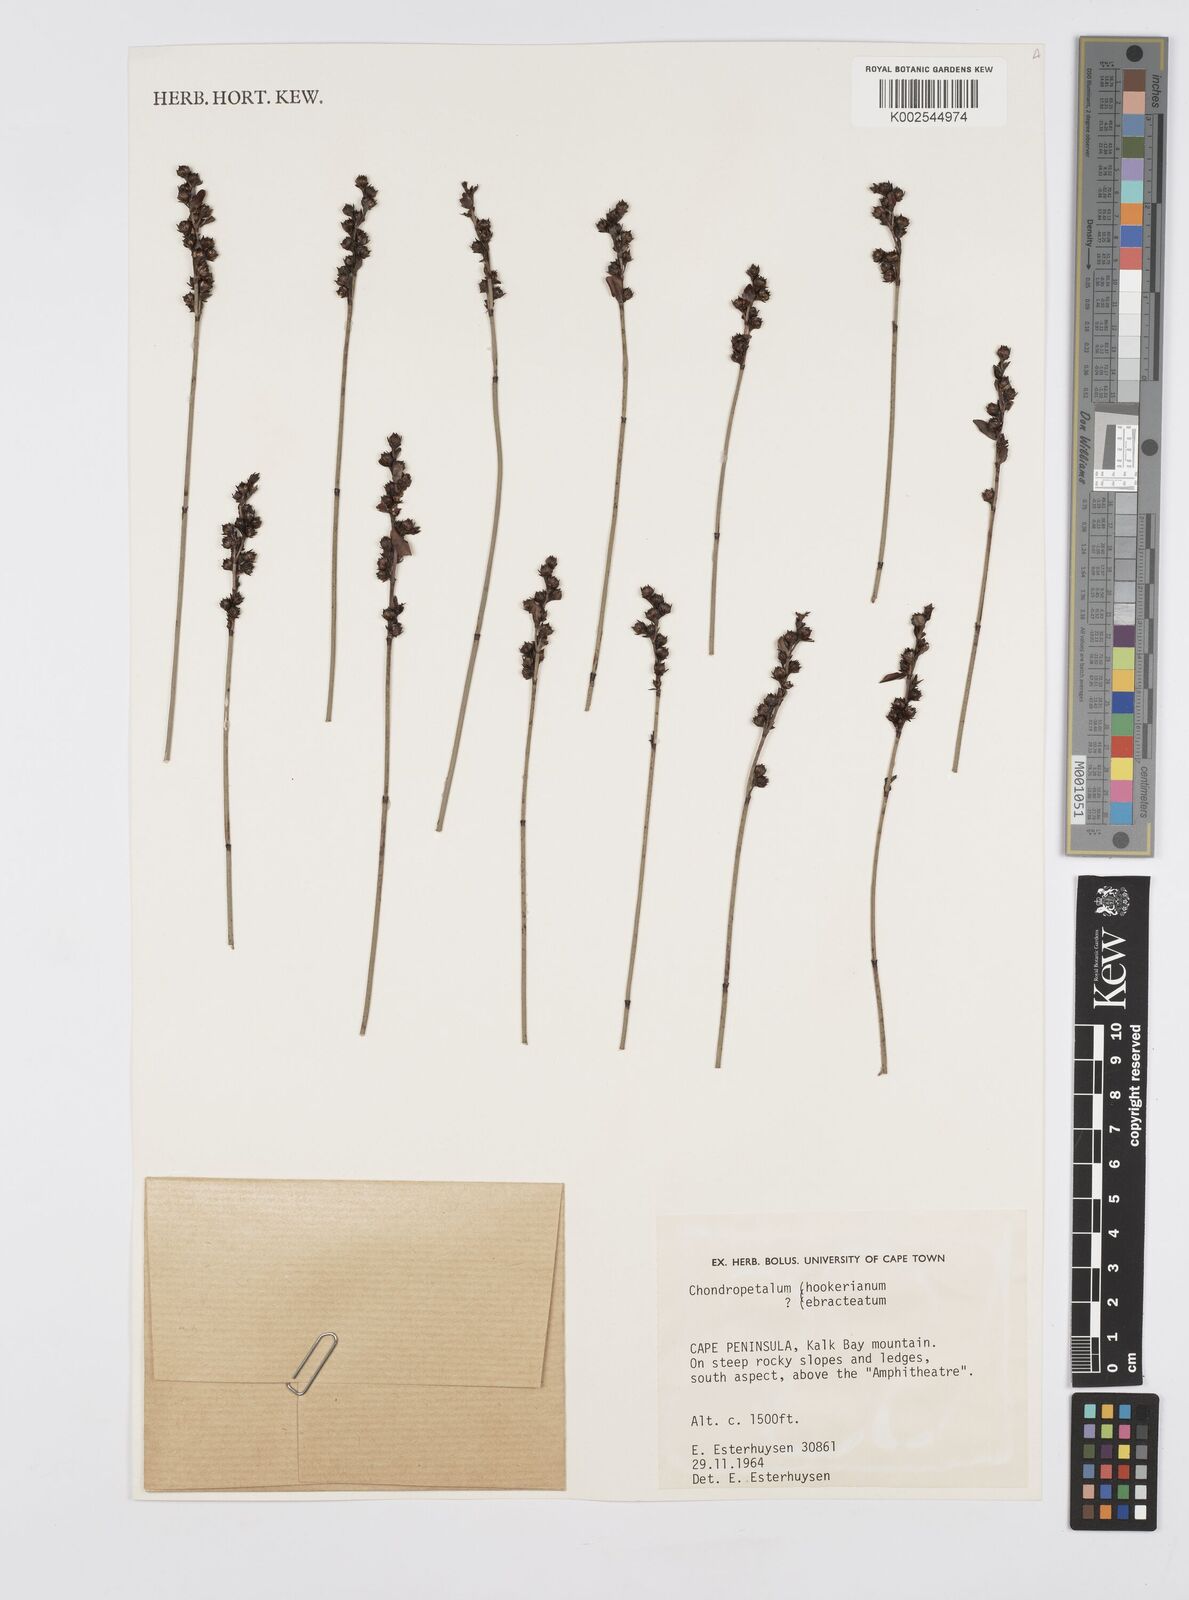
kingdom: Plantae
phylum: Tracheophyta
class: Liliopsida
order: Poales
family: Restionaceae
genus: Elegia
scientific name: Elegia hookeriana
